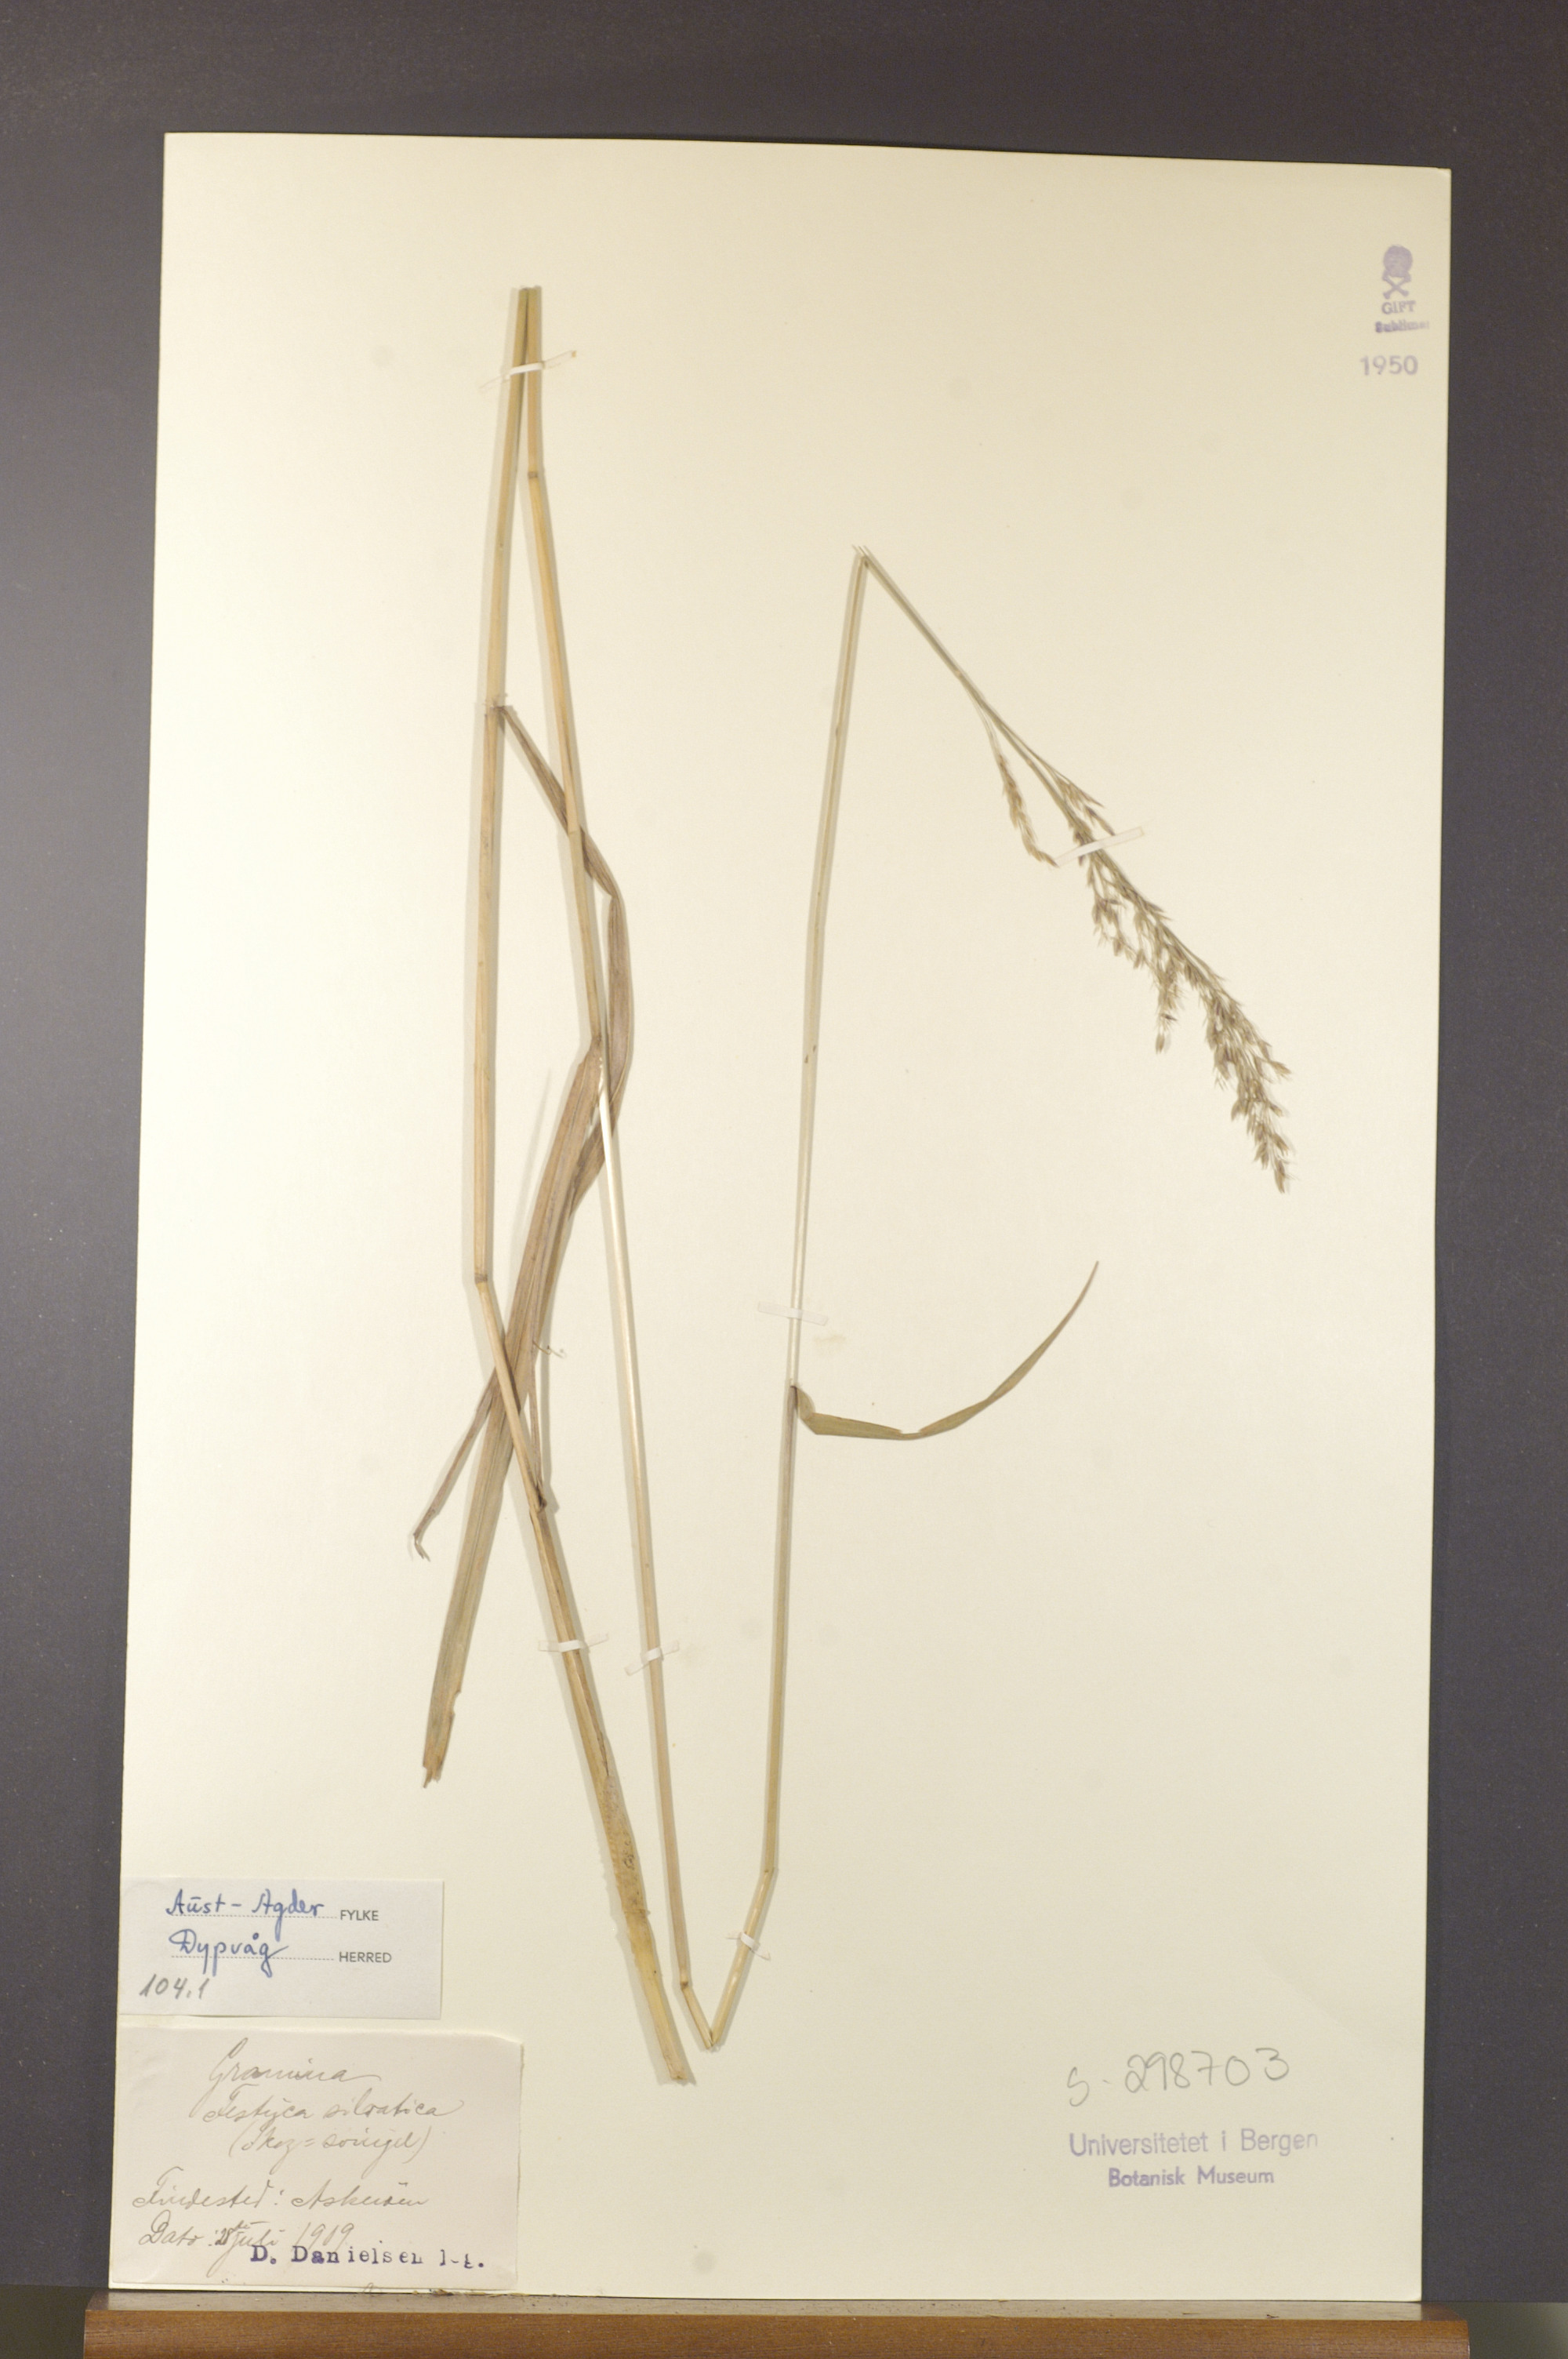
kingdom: Plantae
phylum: Tracheophyta
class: Liliopsida
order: Poales
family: Poaceae
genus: Festuca
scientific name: Festuca altissima
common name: Wood fescue
